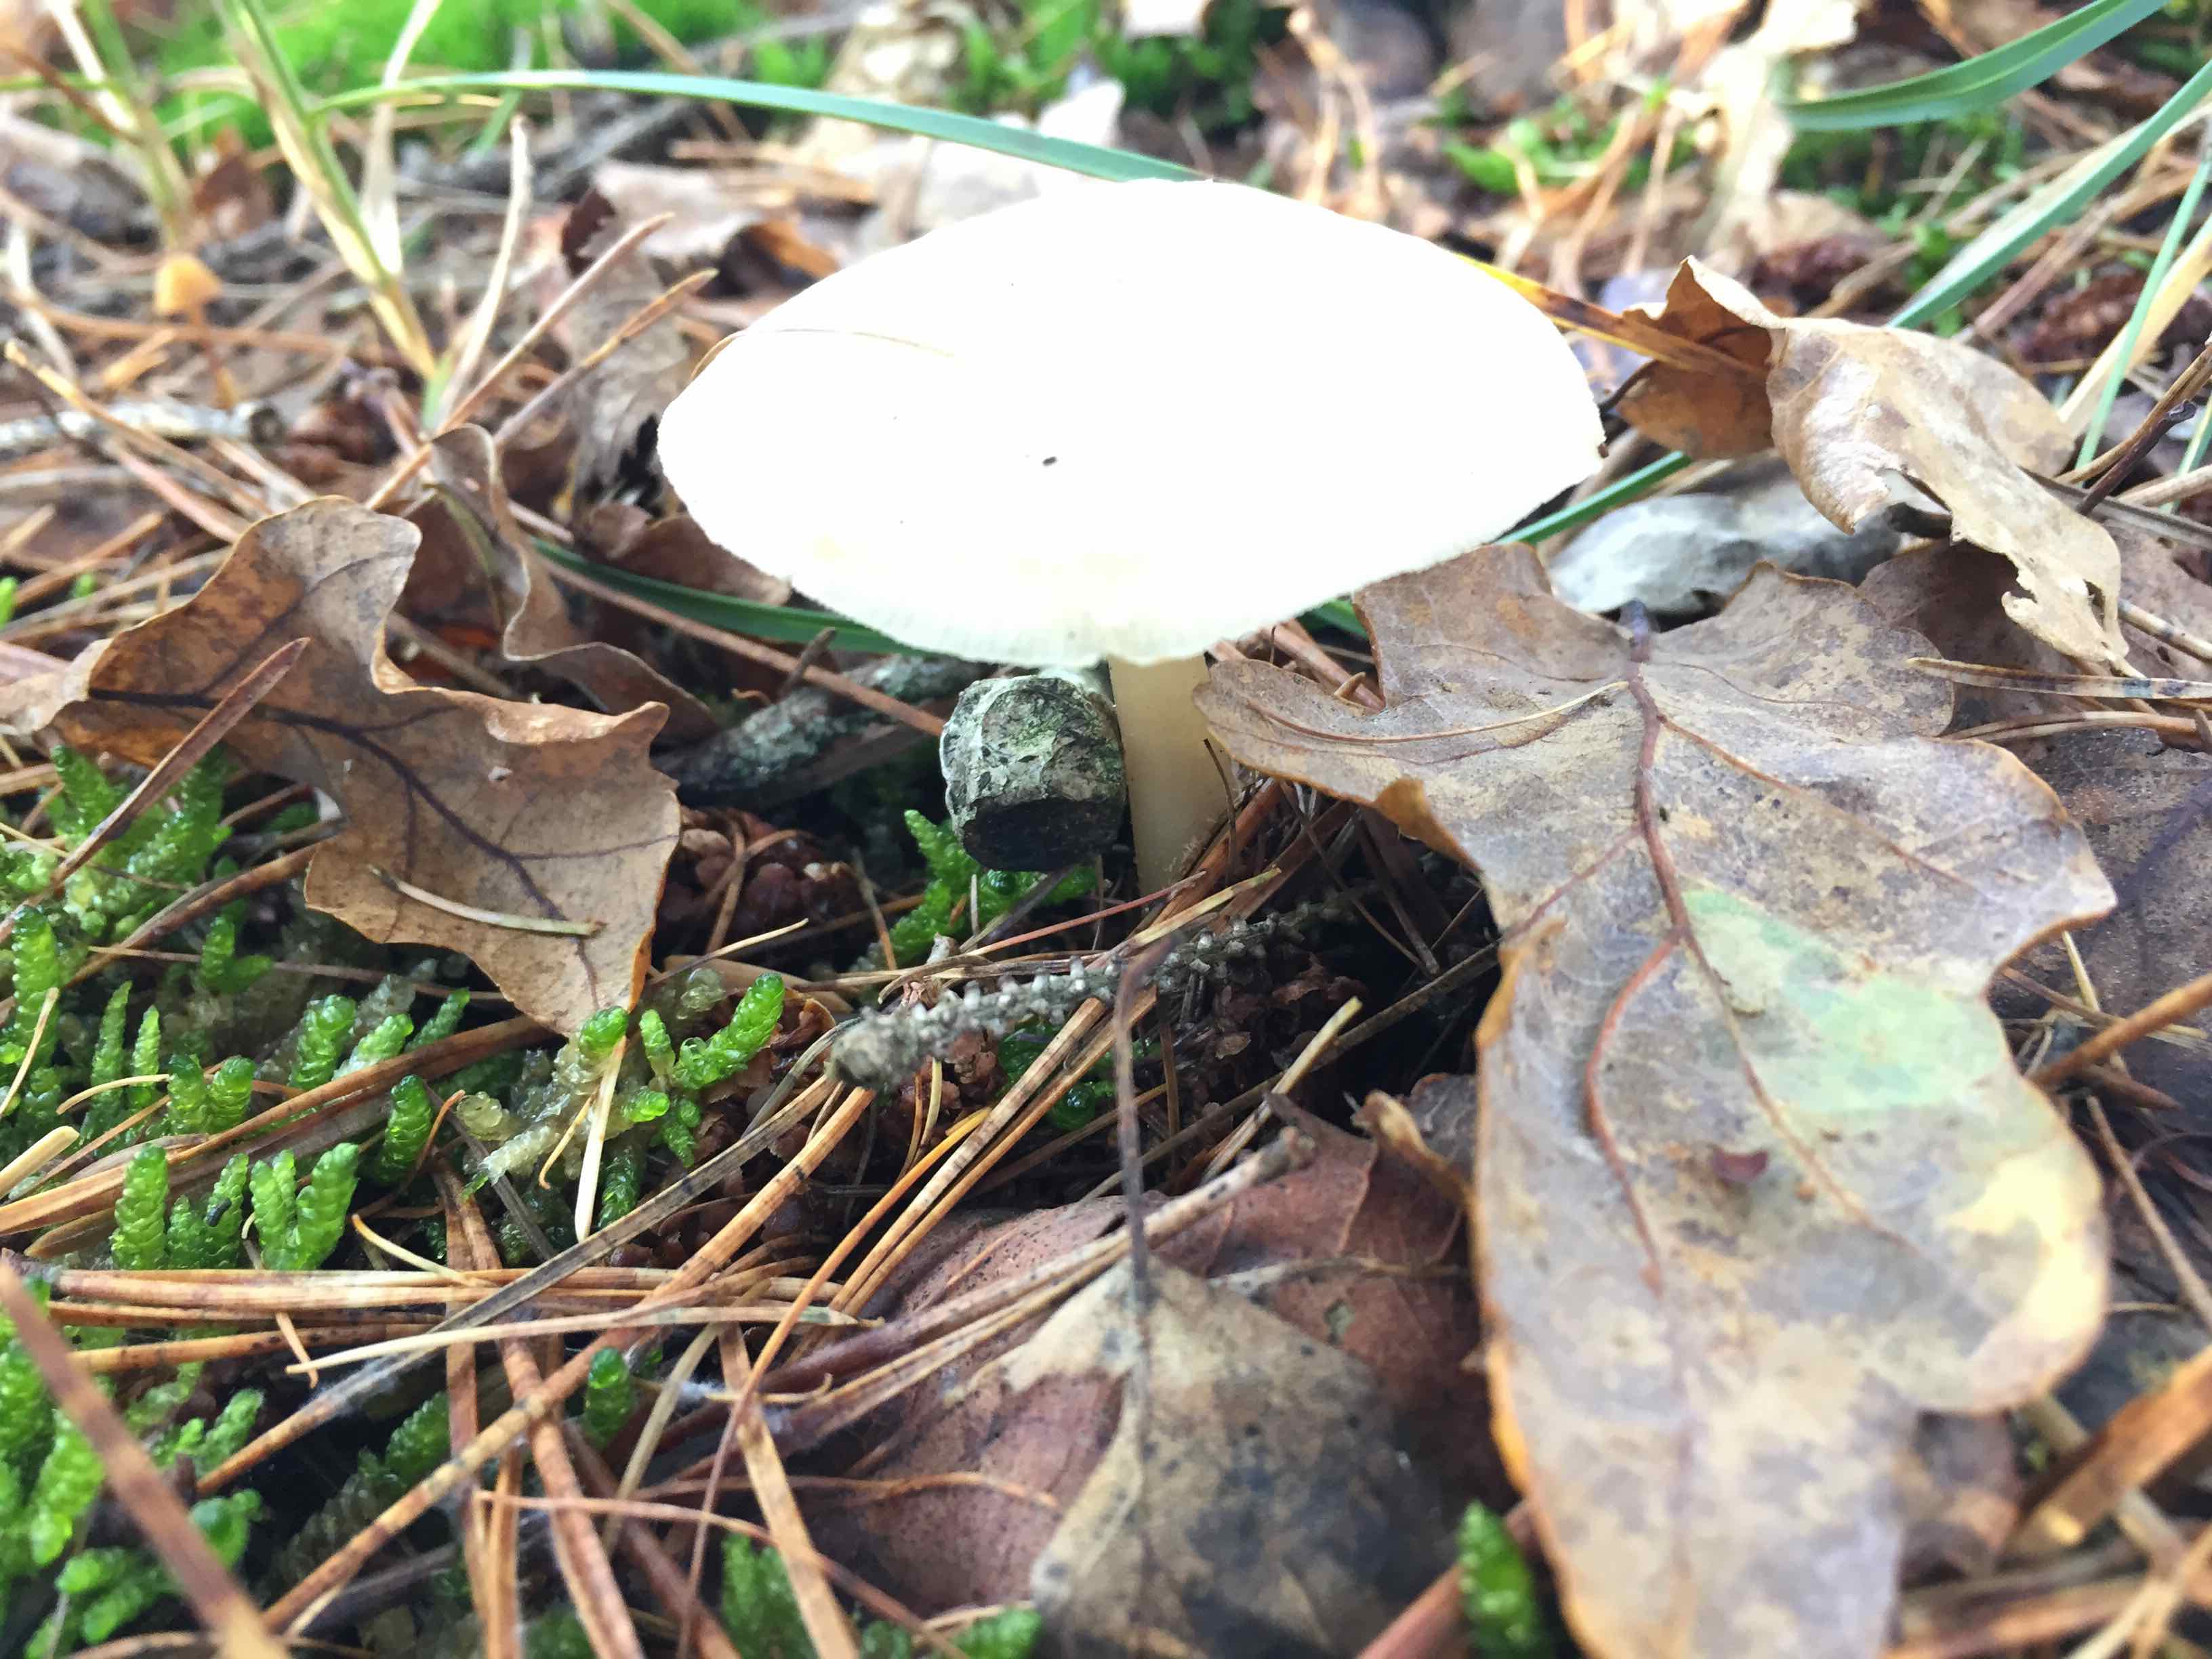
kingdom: Fungi
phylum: Basidiomycota
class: Agaricomycetes
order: Agaricales
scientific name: Agaricales
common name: champignonordenen
